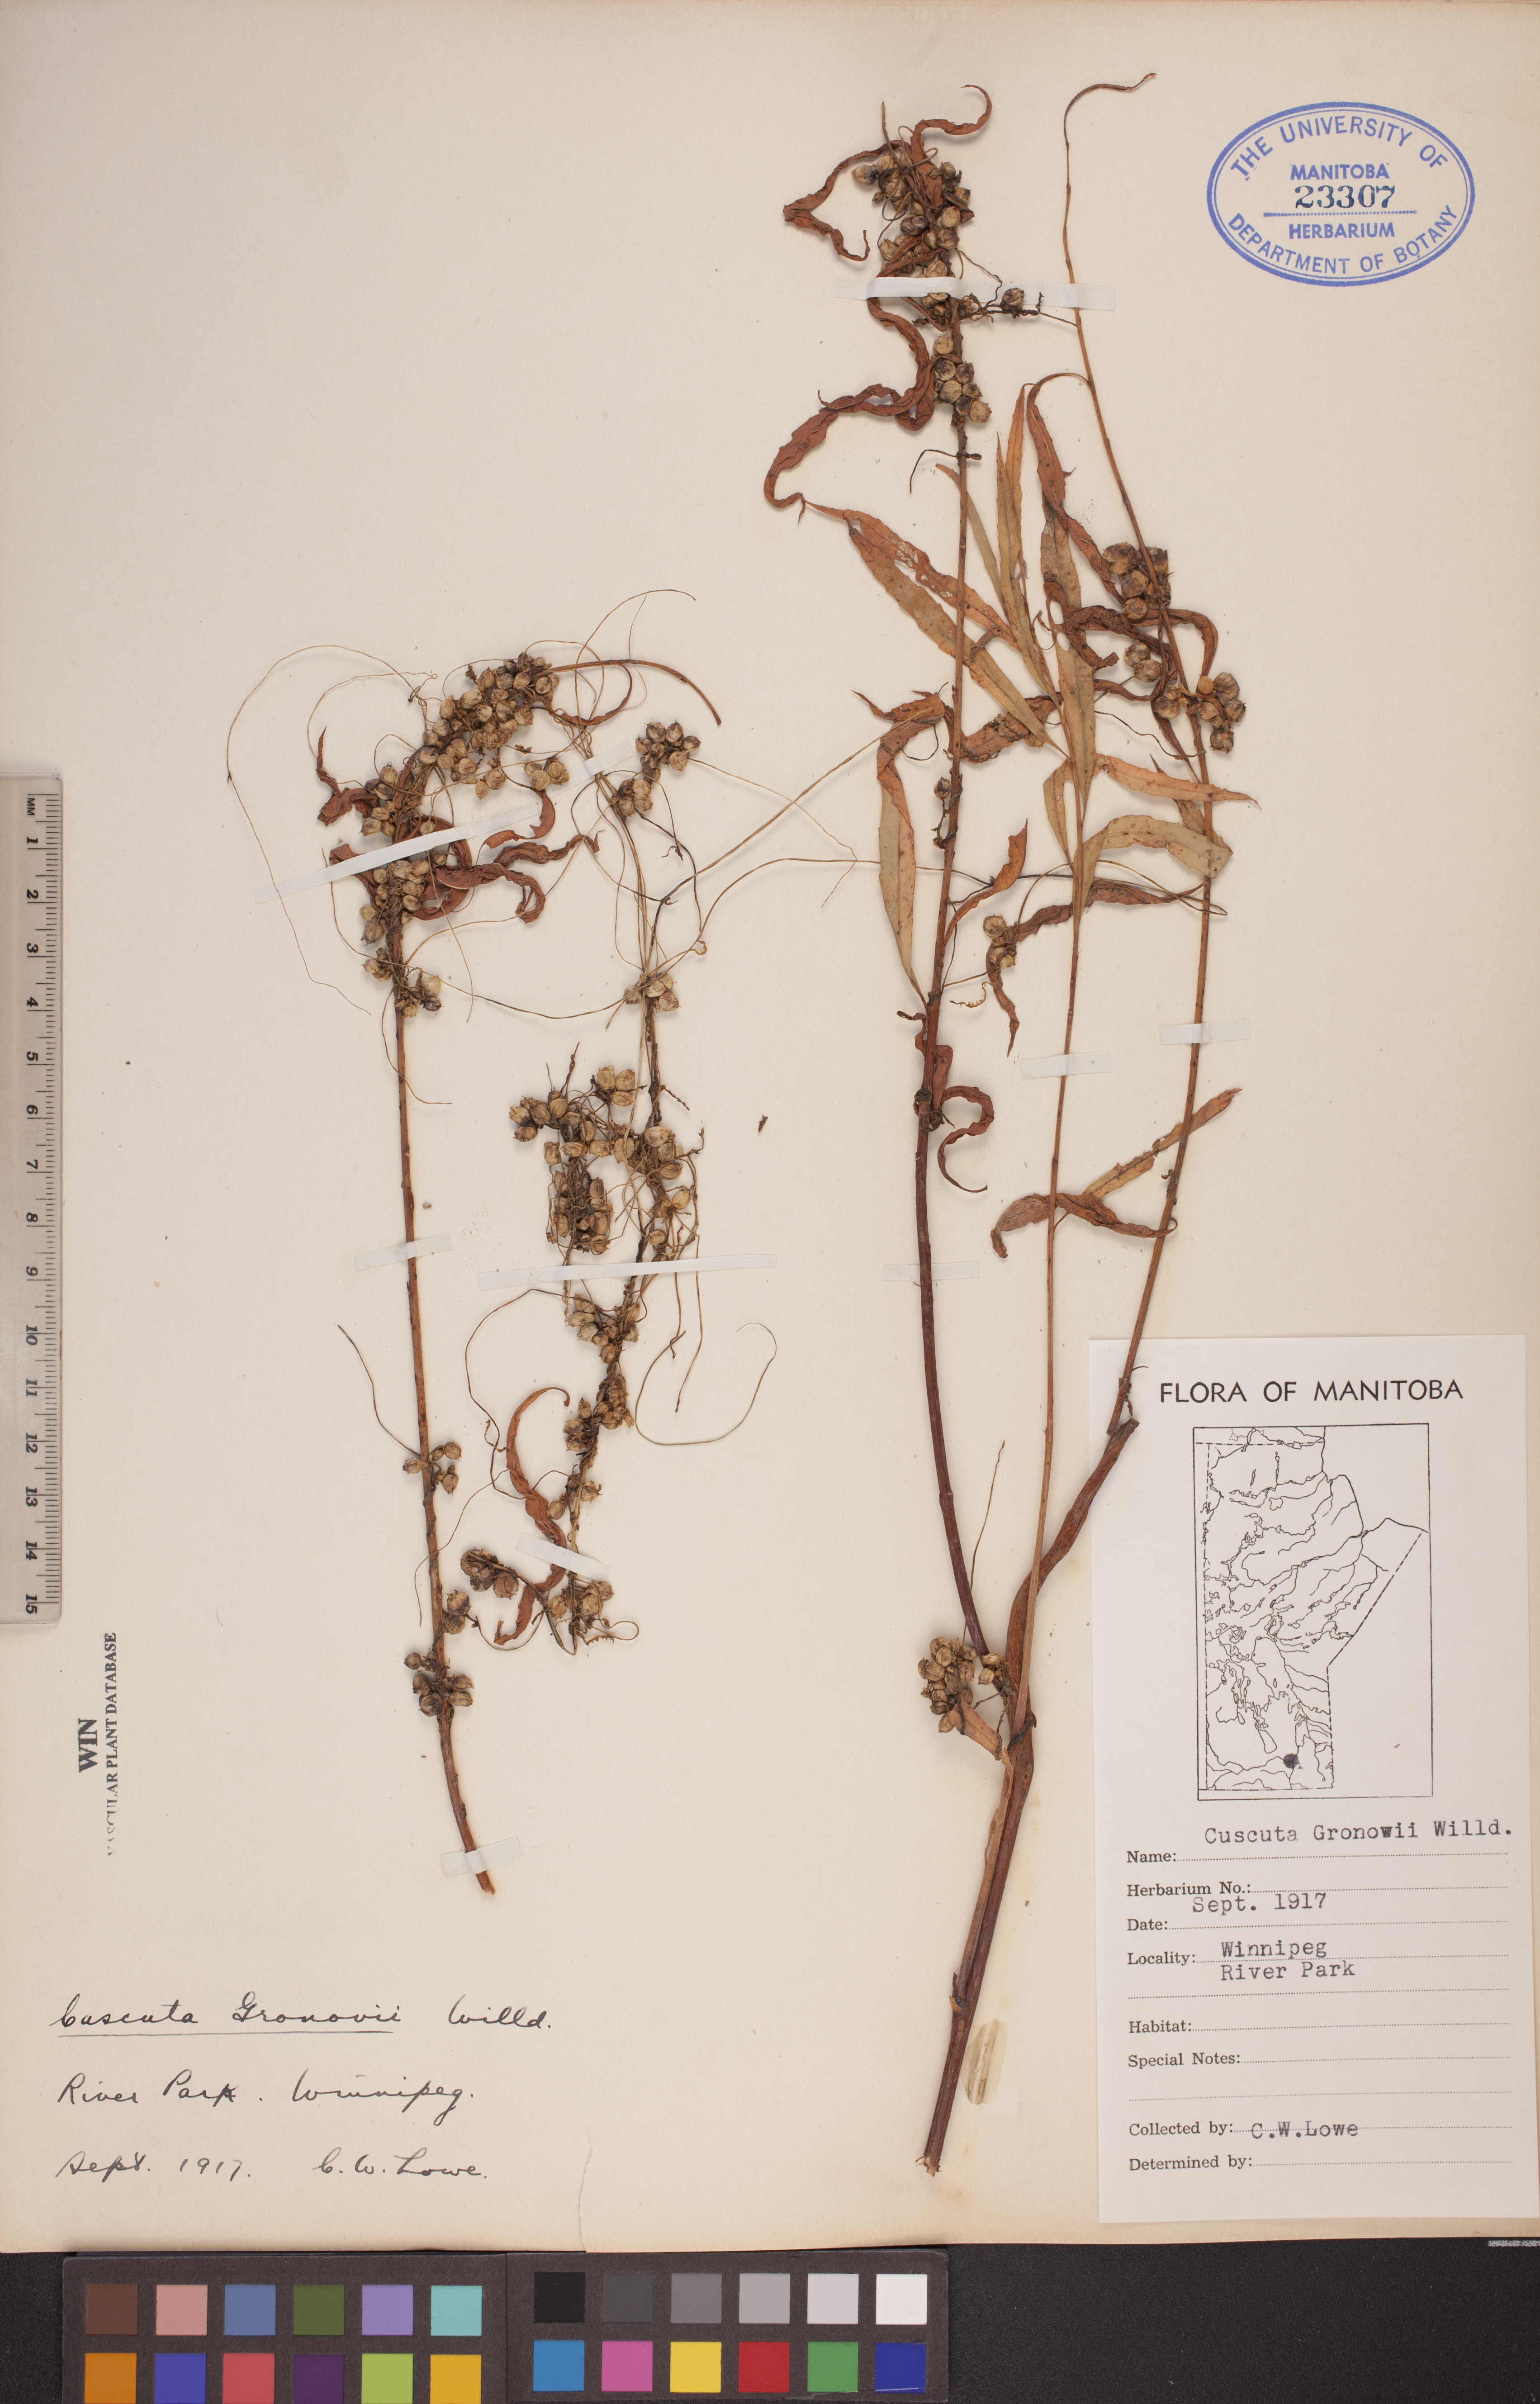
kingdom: Plantae
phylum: Tracheophyta
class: Magnoliopsida
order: Solanales
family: Convolvulaceae
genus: Cuscuta
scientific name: Cuscuta gronovii
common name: Common dodder
